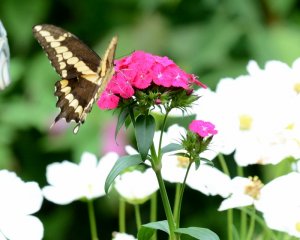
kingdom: Animalia
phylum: Arthropoda
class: Insecta
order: Lepidoptera
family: Papilionidae
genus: Papilio
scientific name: Papilio cresphontes
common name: Eastern Giant Swallowtail
